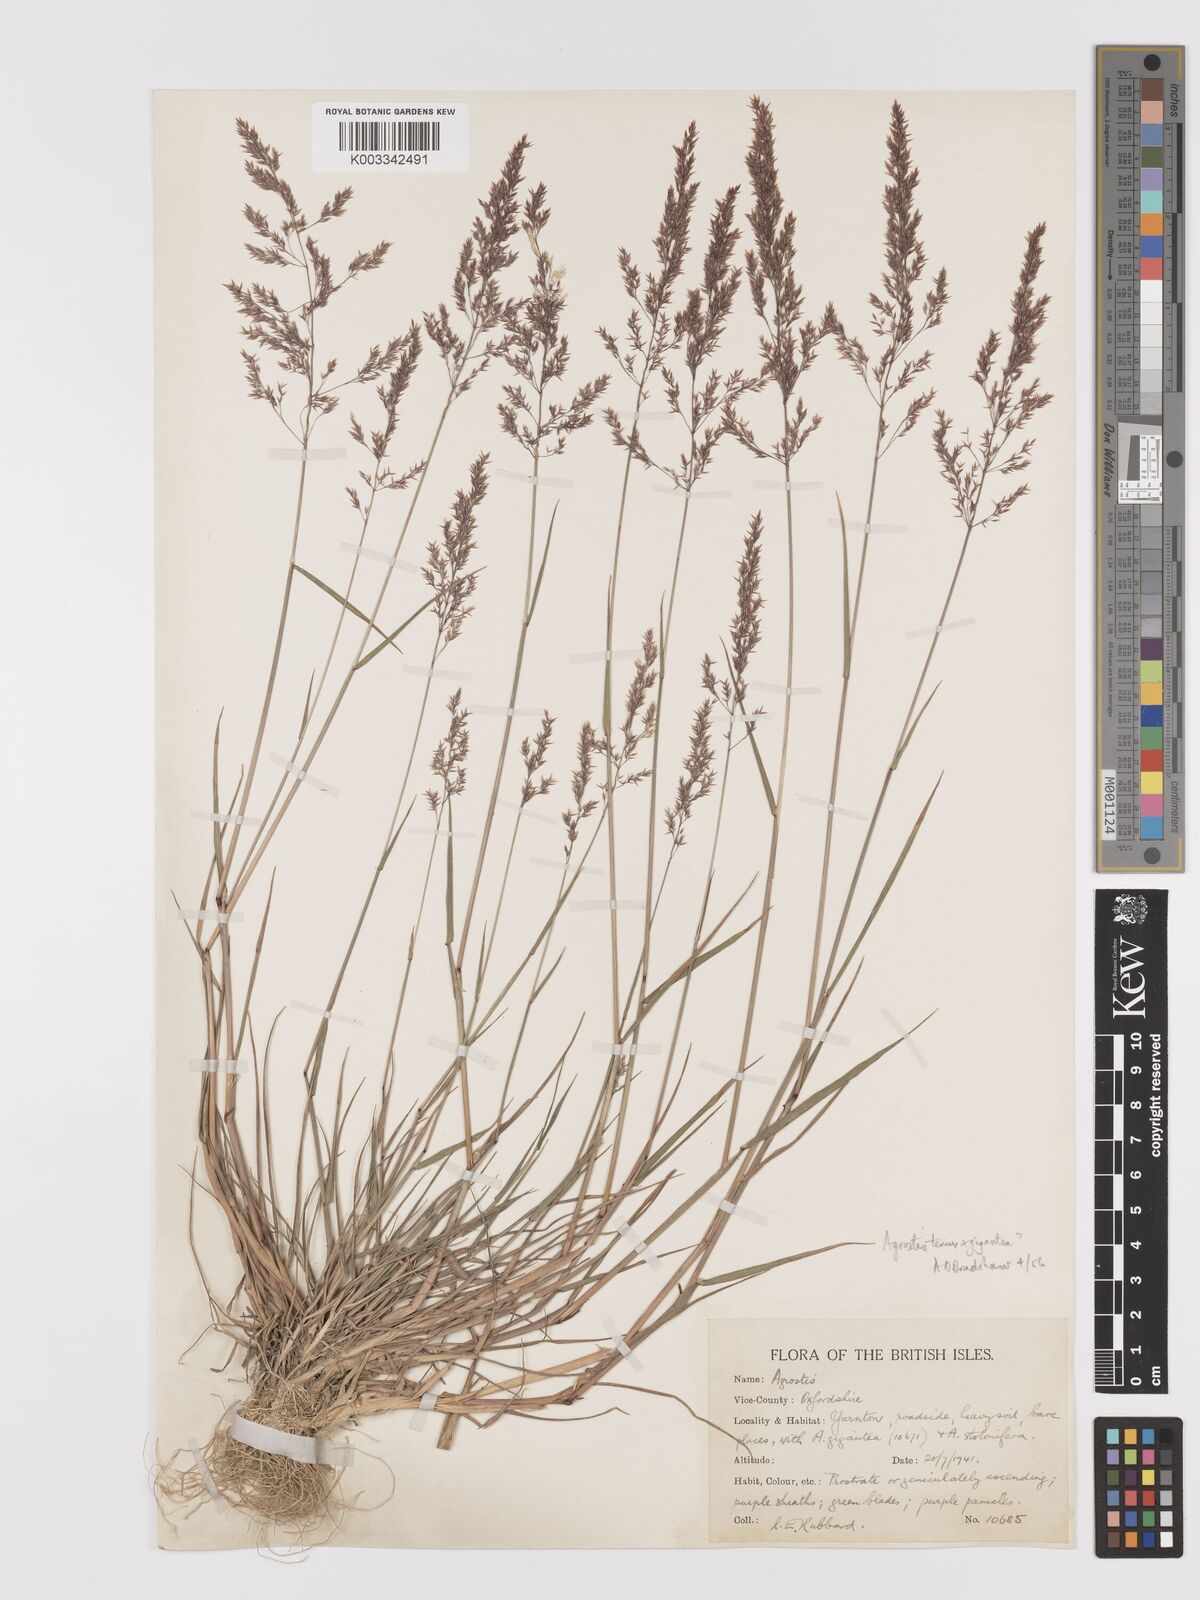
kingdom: Plantae
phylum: Tracheophyta
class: Liliopsida
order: Poales
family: Poaceae
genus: Agrostis
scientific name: Agrostis capillaris
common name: Colonial bentgrass
